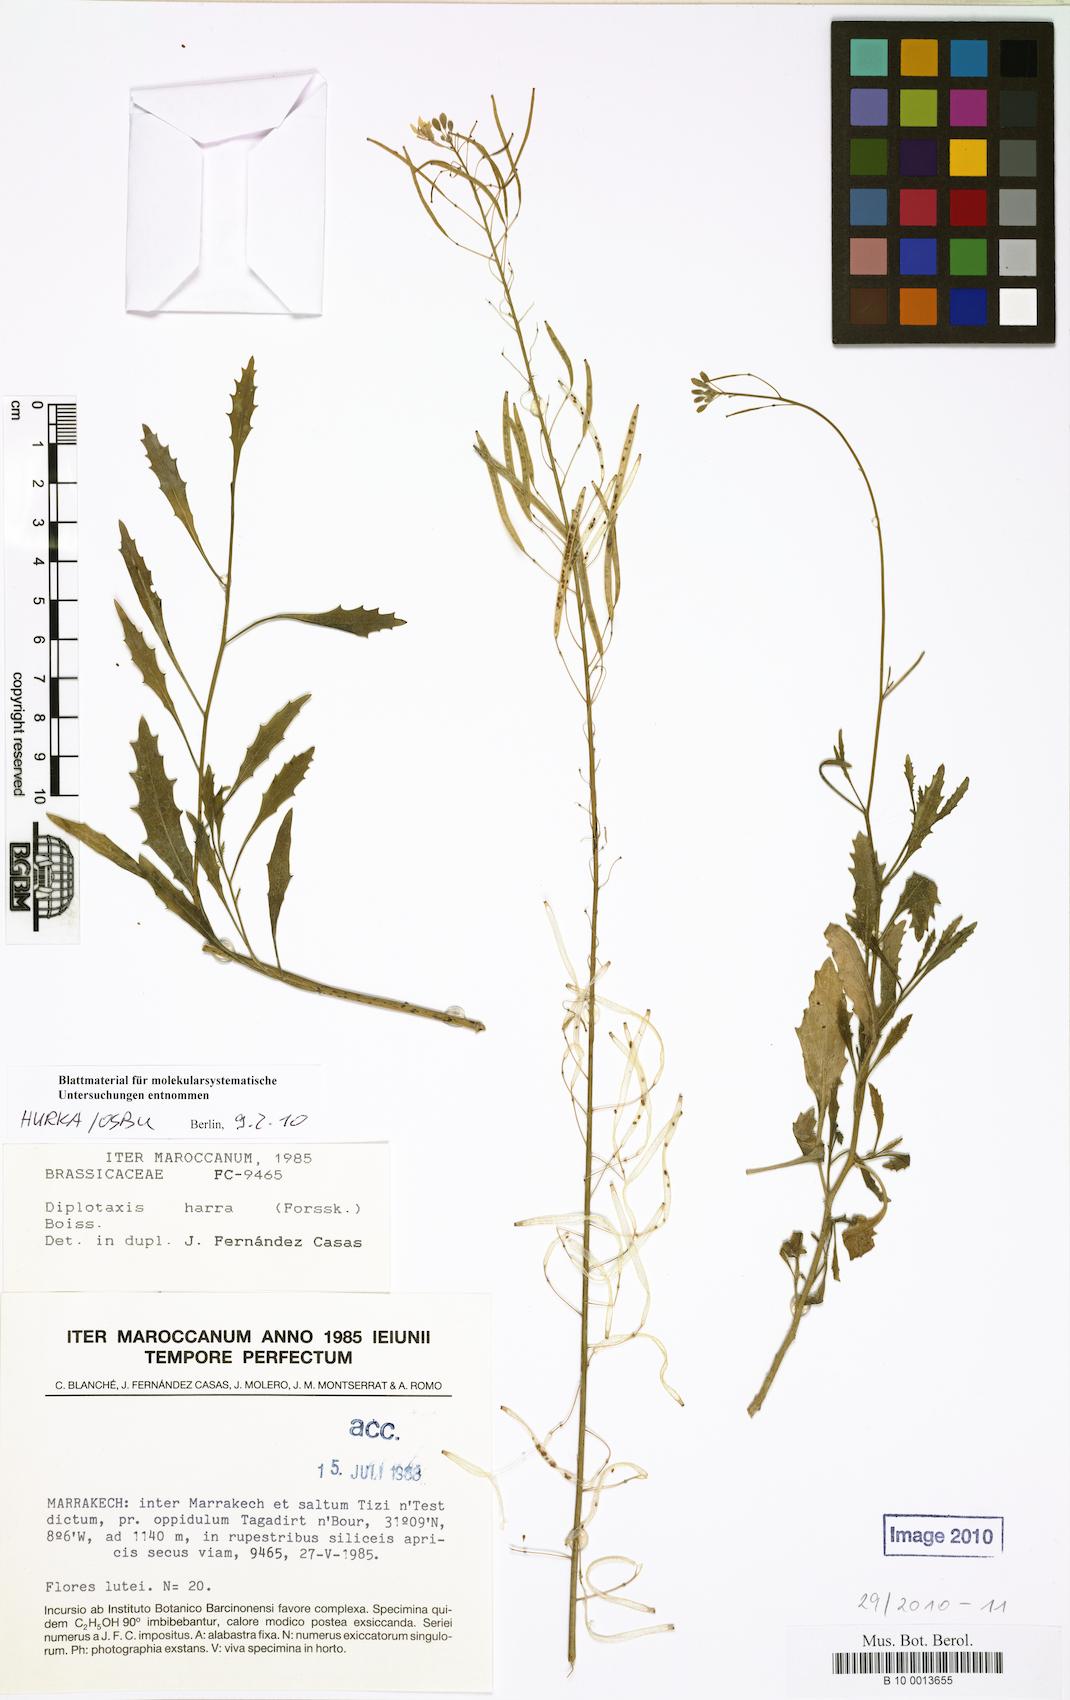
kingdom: Plantae
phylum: Tracheophyta
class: Magnoliopsida
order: Brassicales
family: Brassicaceae
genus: Diplotaxis
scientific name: Diplotaxis harra
